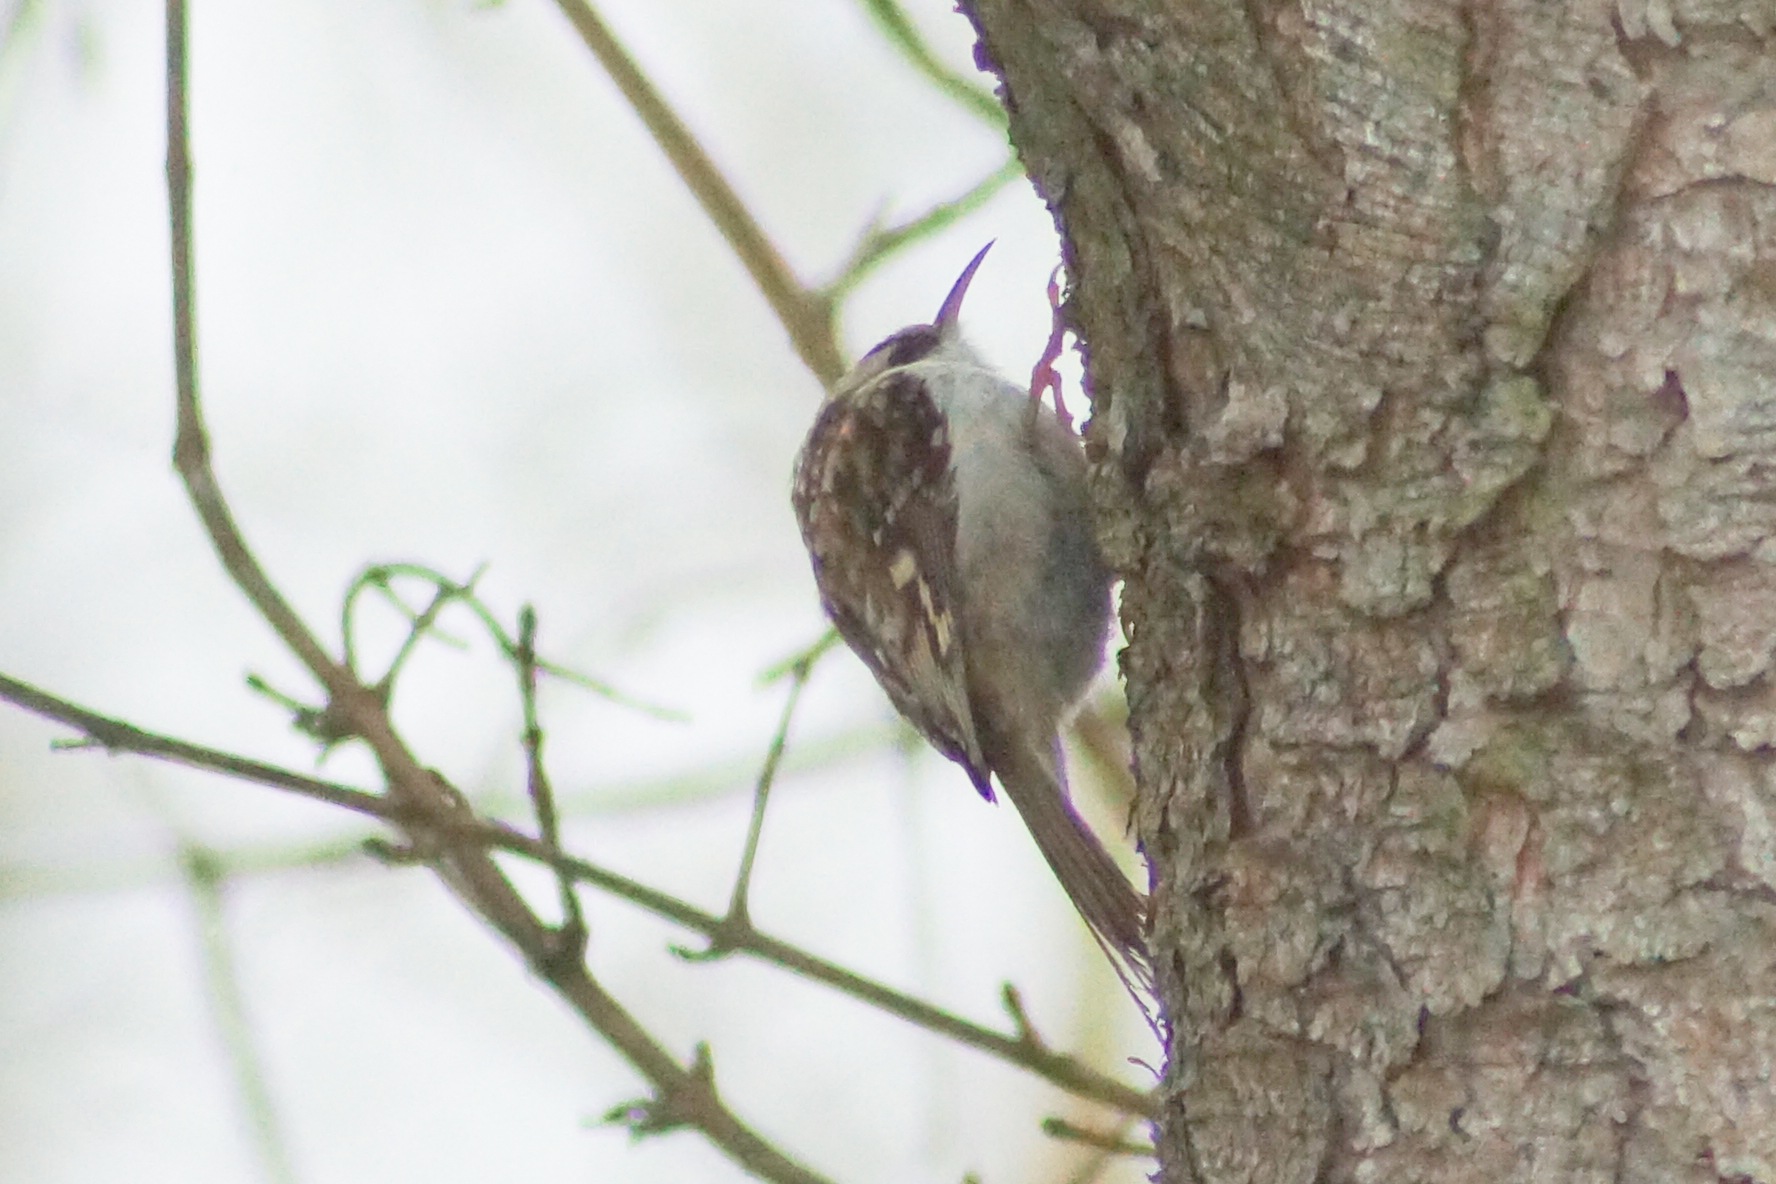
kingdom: Animalia
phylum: Chordata
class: Aves
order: Passeriformes
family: Certhiidae
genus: Certhia
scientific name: Certhia familiaris
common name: Træløber
